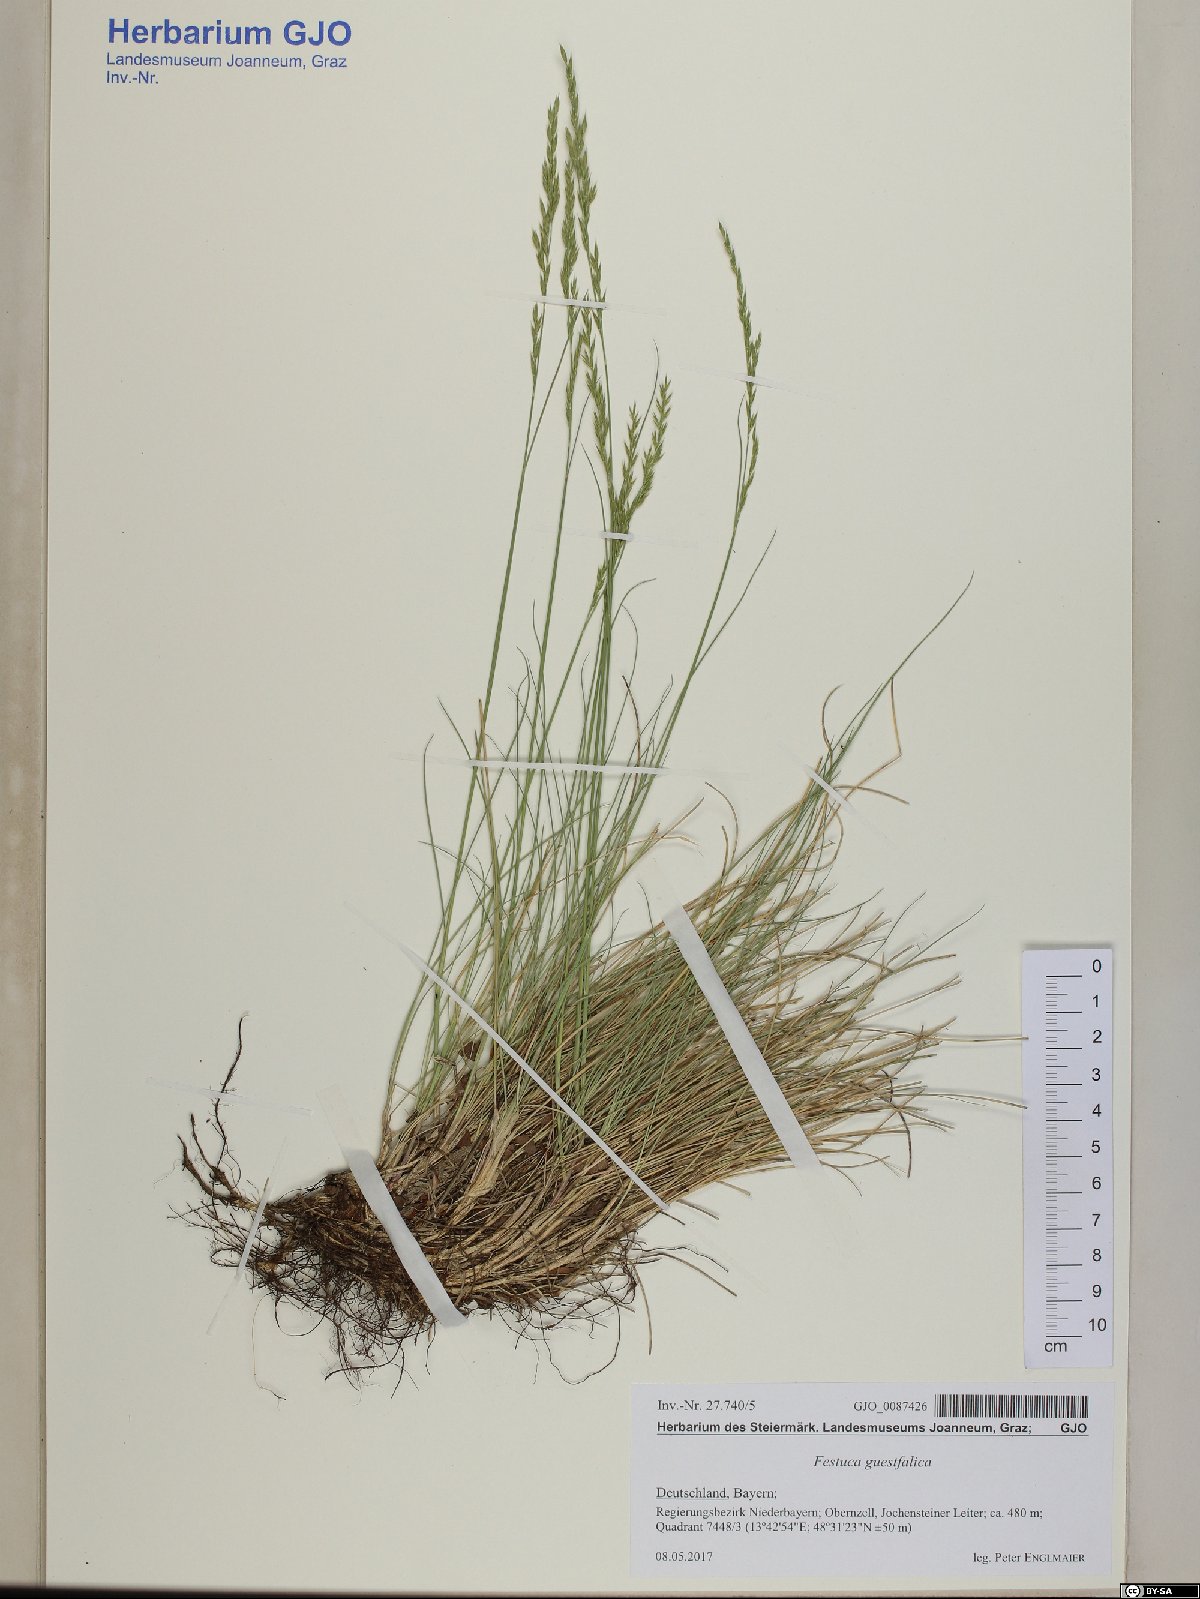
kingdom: Plantae
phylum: Tracheophyta
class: Liliopsida
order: Poales
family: Poaceae
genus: Festuca
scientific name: Festuca guestfalica
